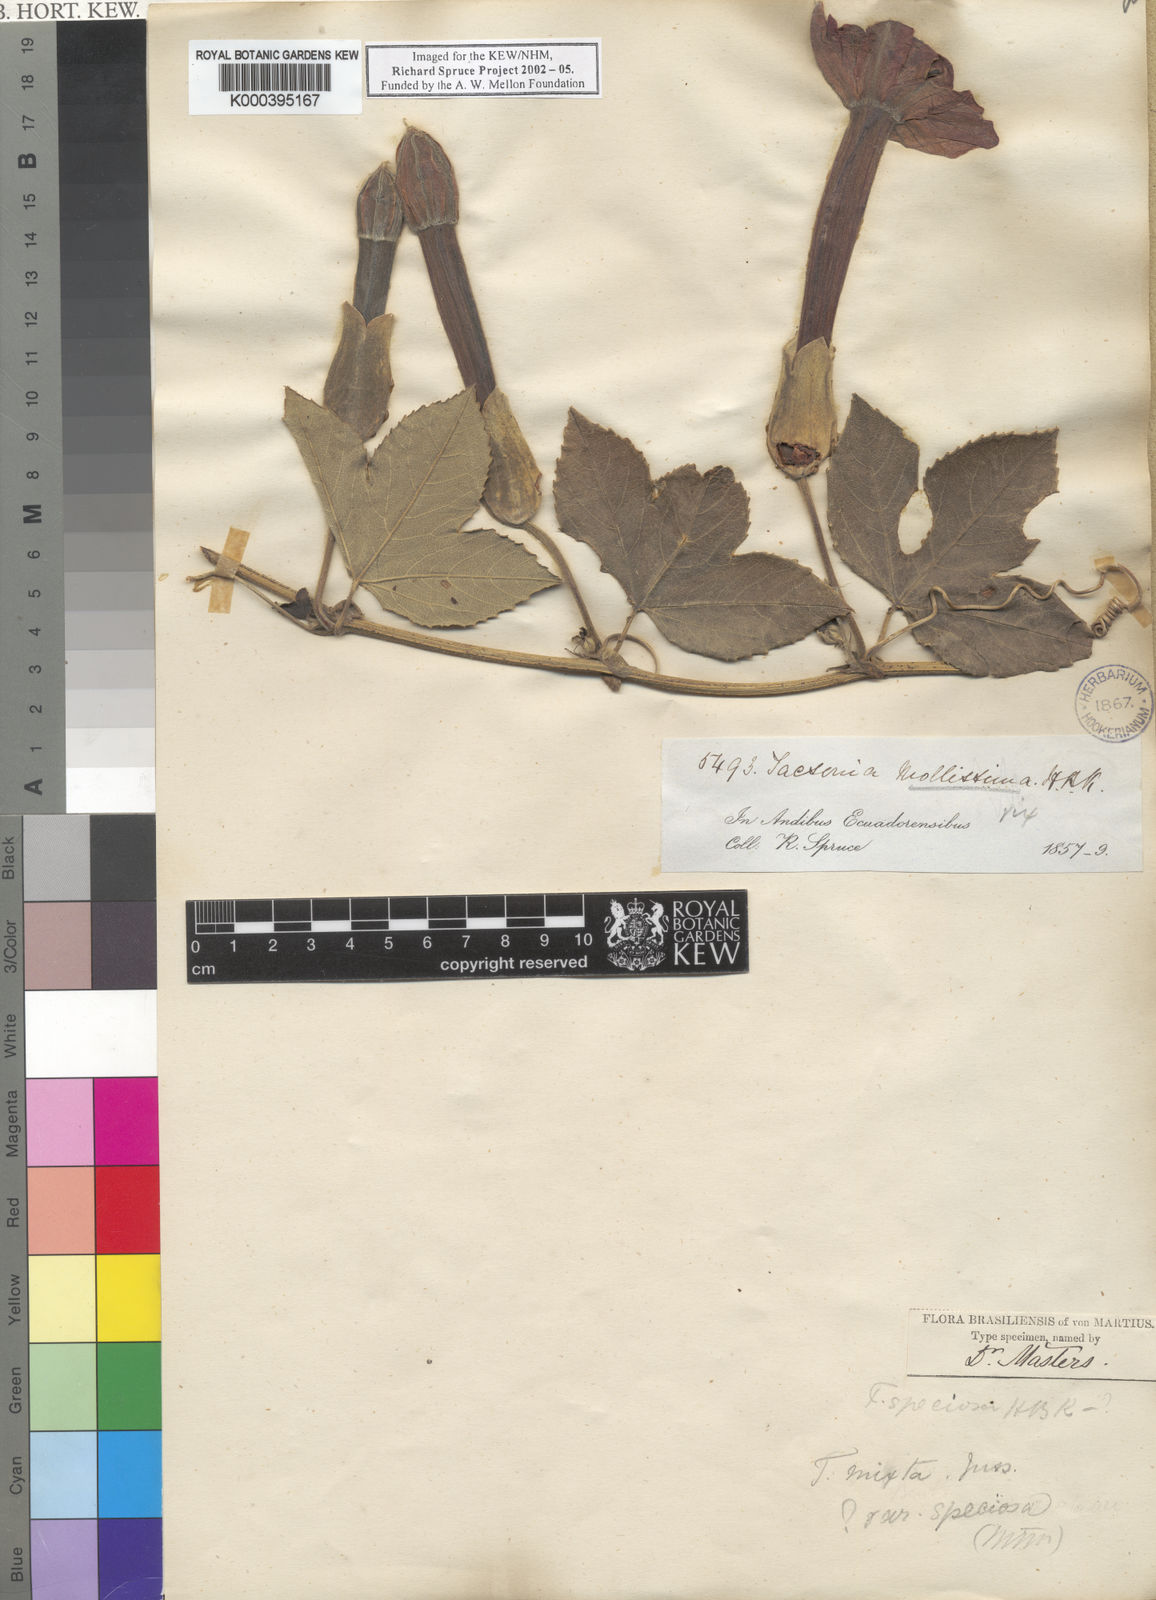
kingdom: Plantae
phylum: Tracheophyta
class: Magnoliopsida
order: Malpighiales
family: Passifloraceae
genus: Passiflora
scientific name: Passiflora mixta
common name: Passion flower
